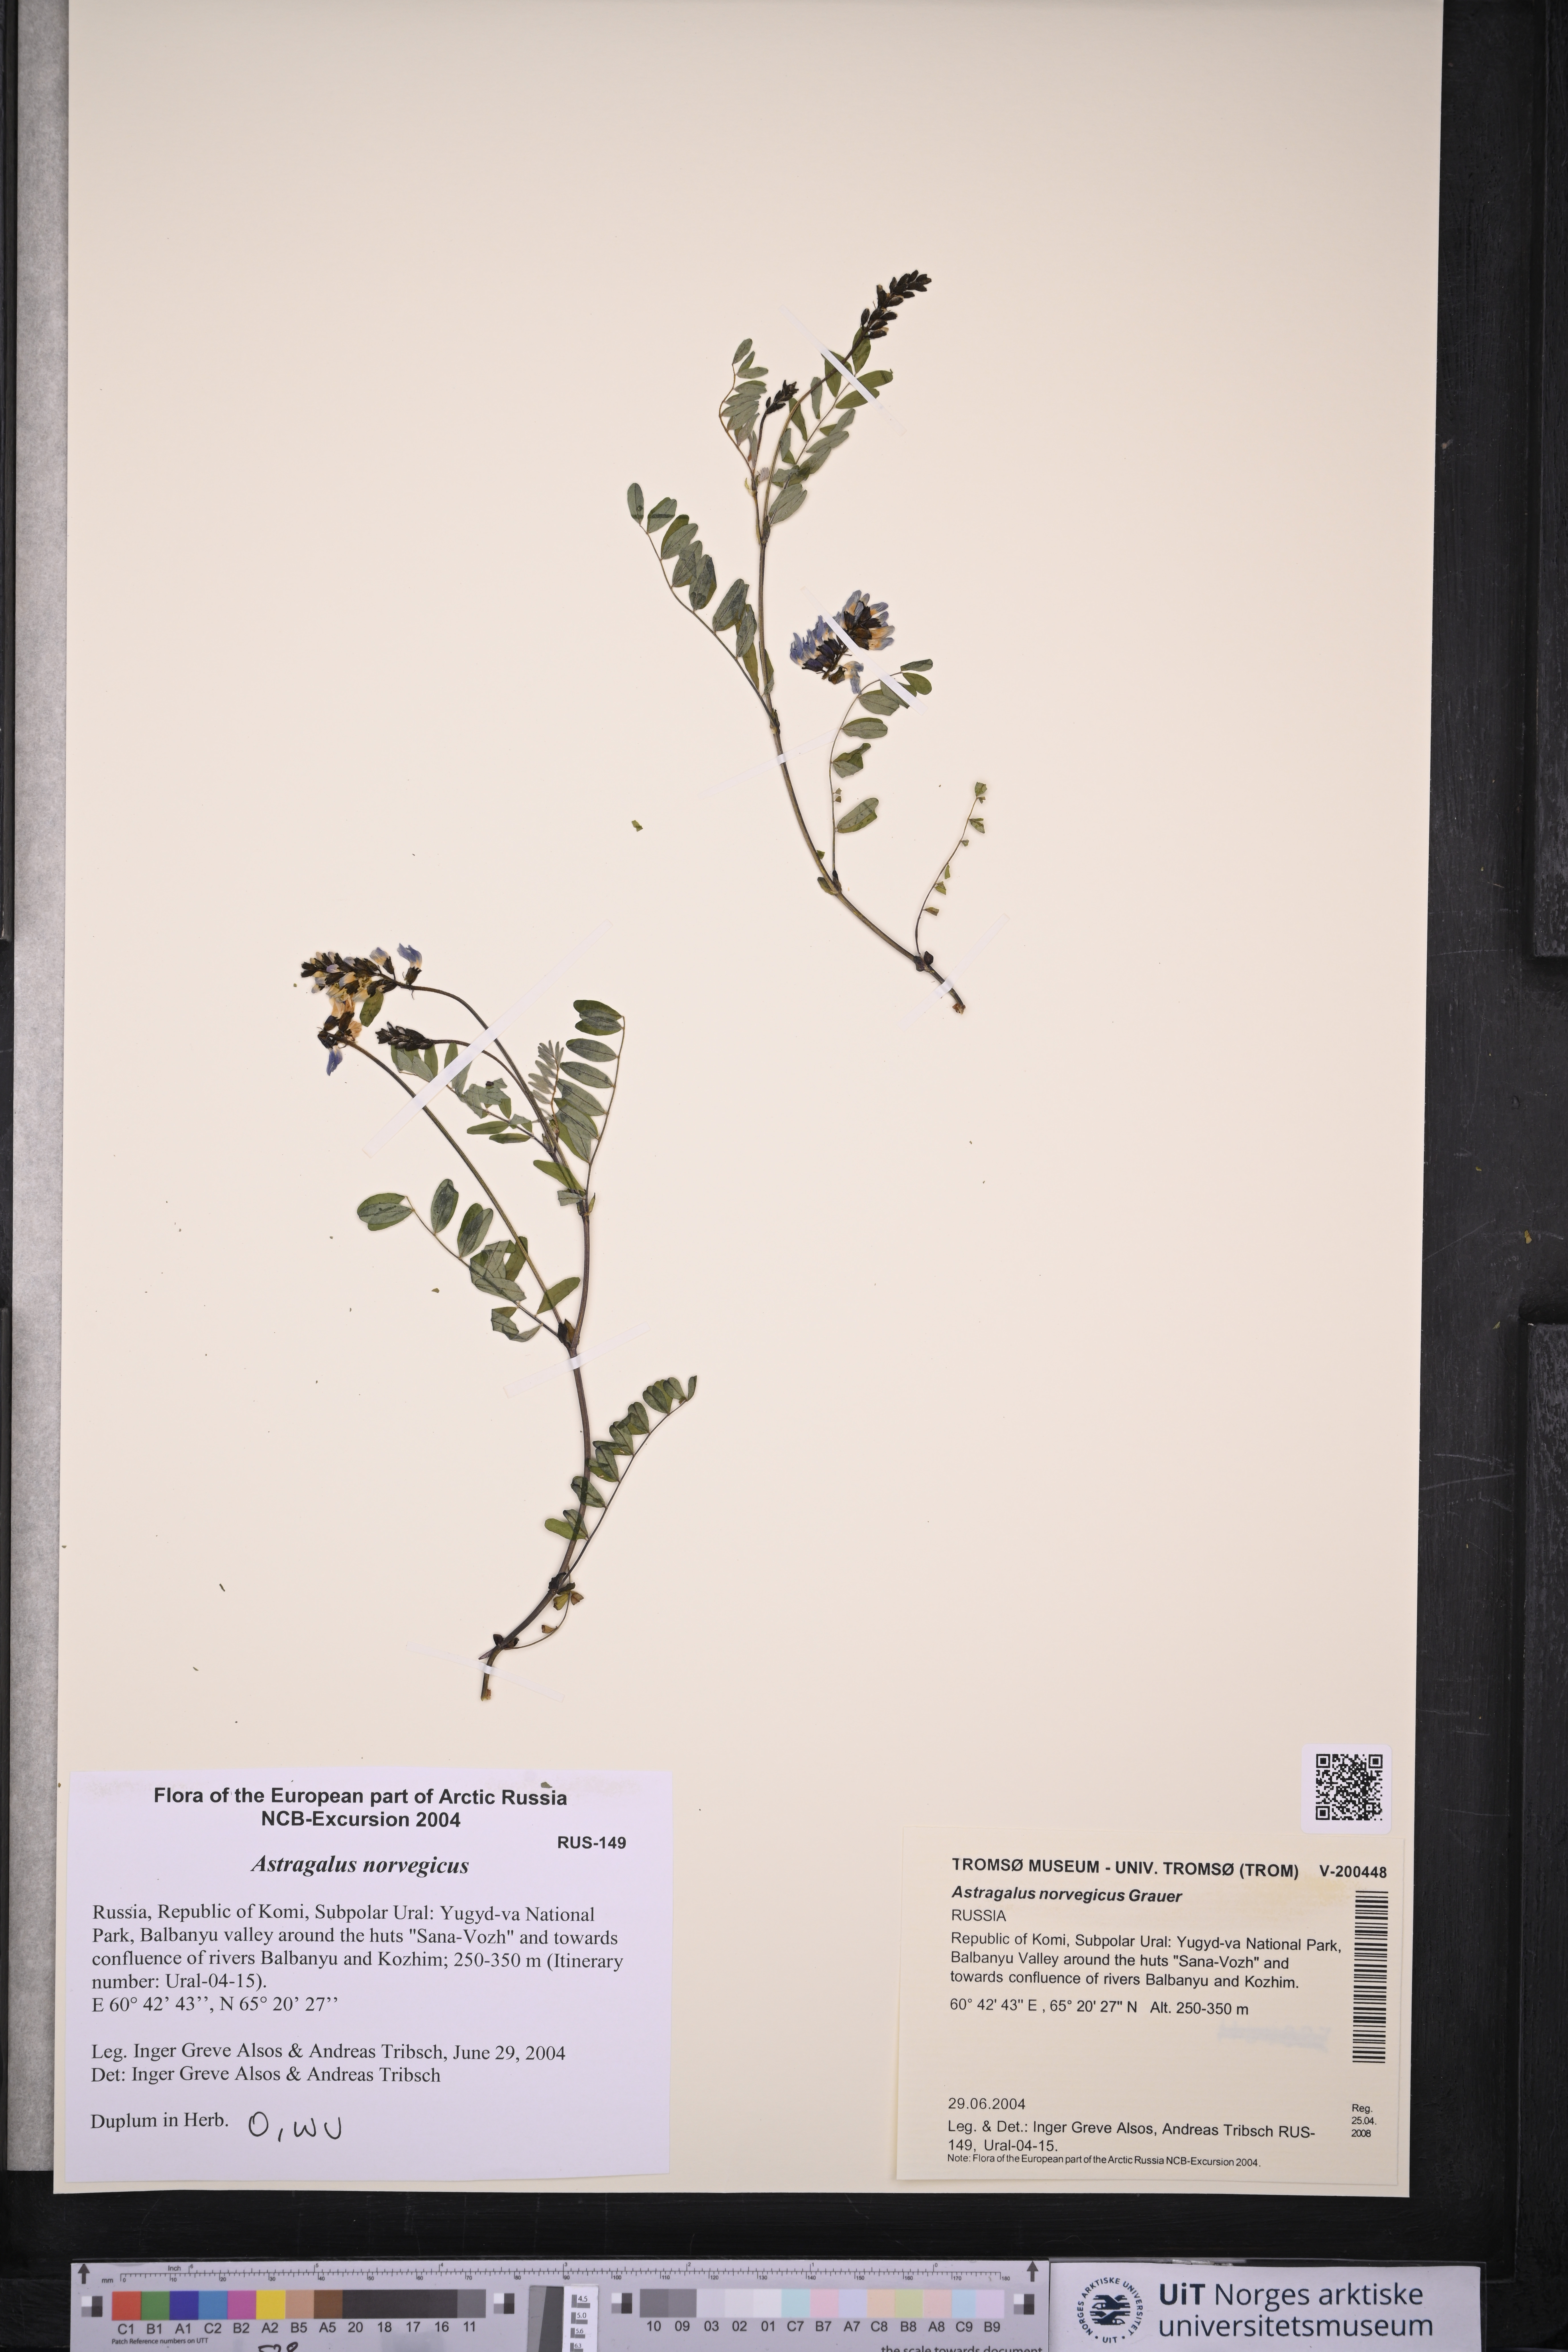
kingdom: Plantae
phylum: Tracheophyta
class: Magnoliopsida
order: Fabales
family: Fabaceae
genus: Astragalus
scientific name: Astragalus norvegicus
